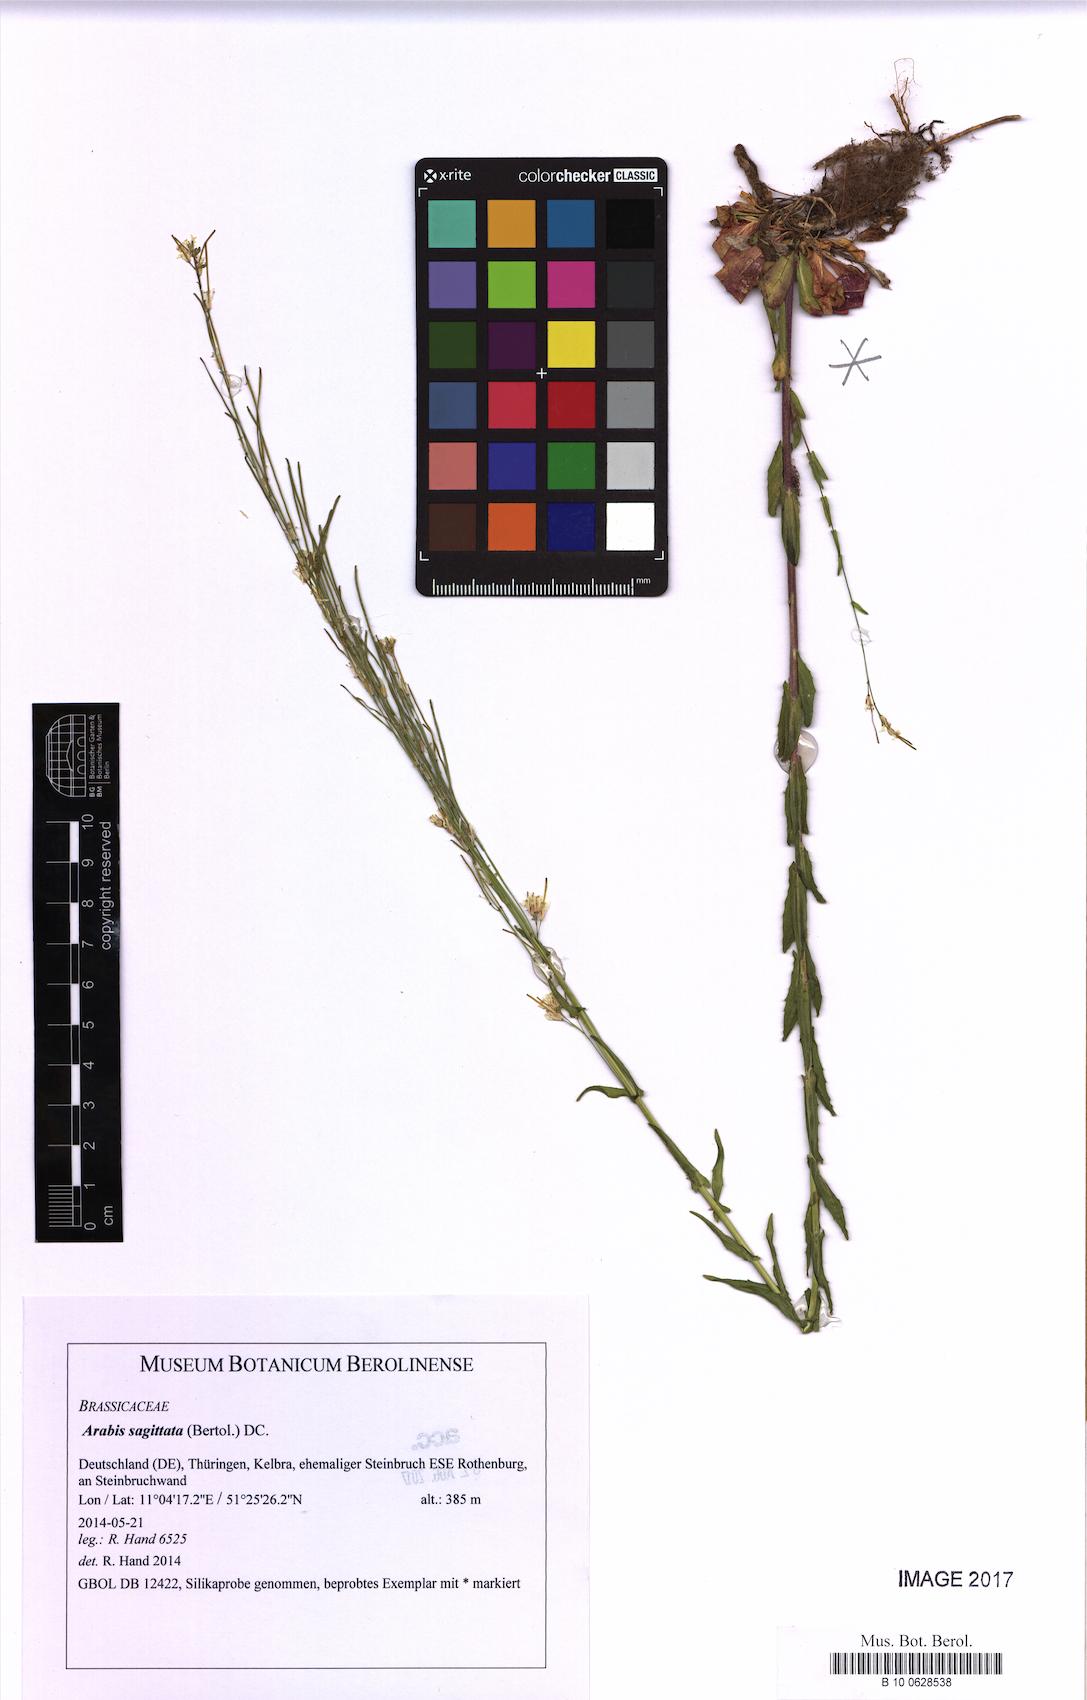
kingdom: Plantae
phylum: Tracheophyta
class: Magnoliopsida
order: Brassicales
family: Brassicaceae
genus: Arabis
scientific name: Arabis sagittata
